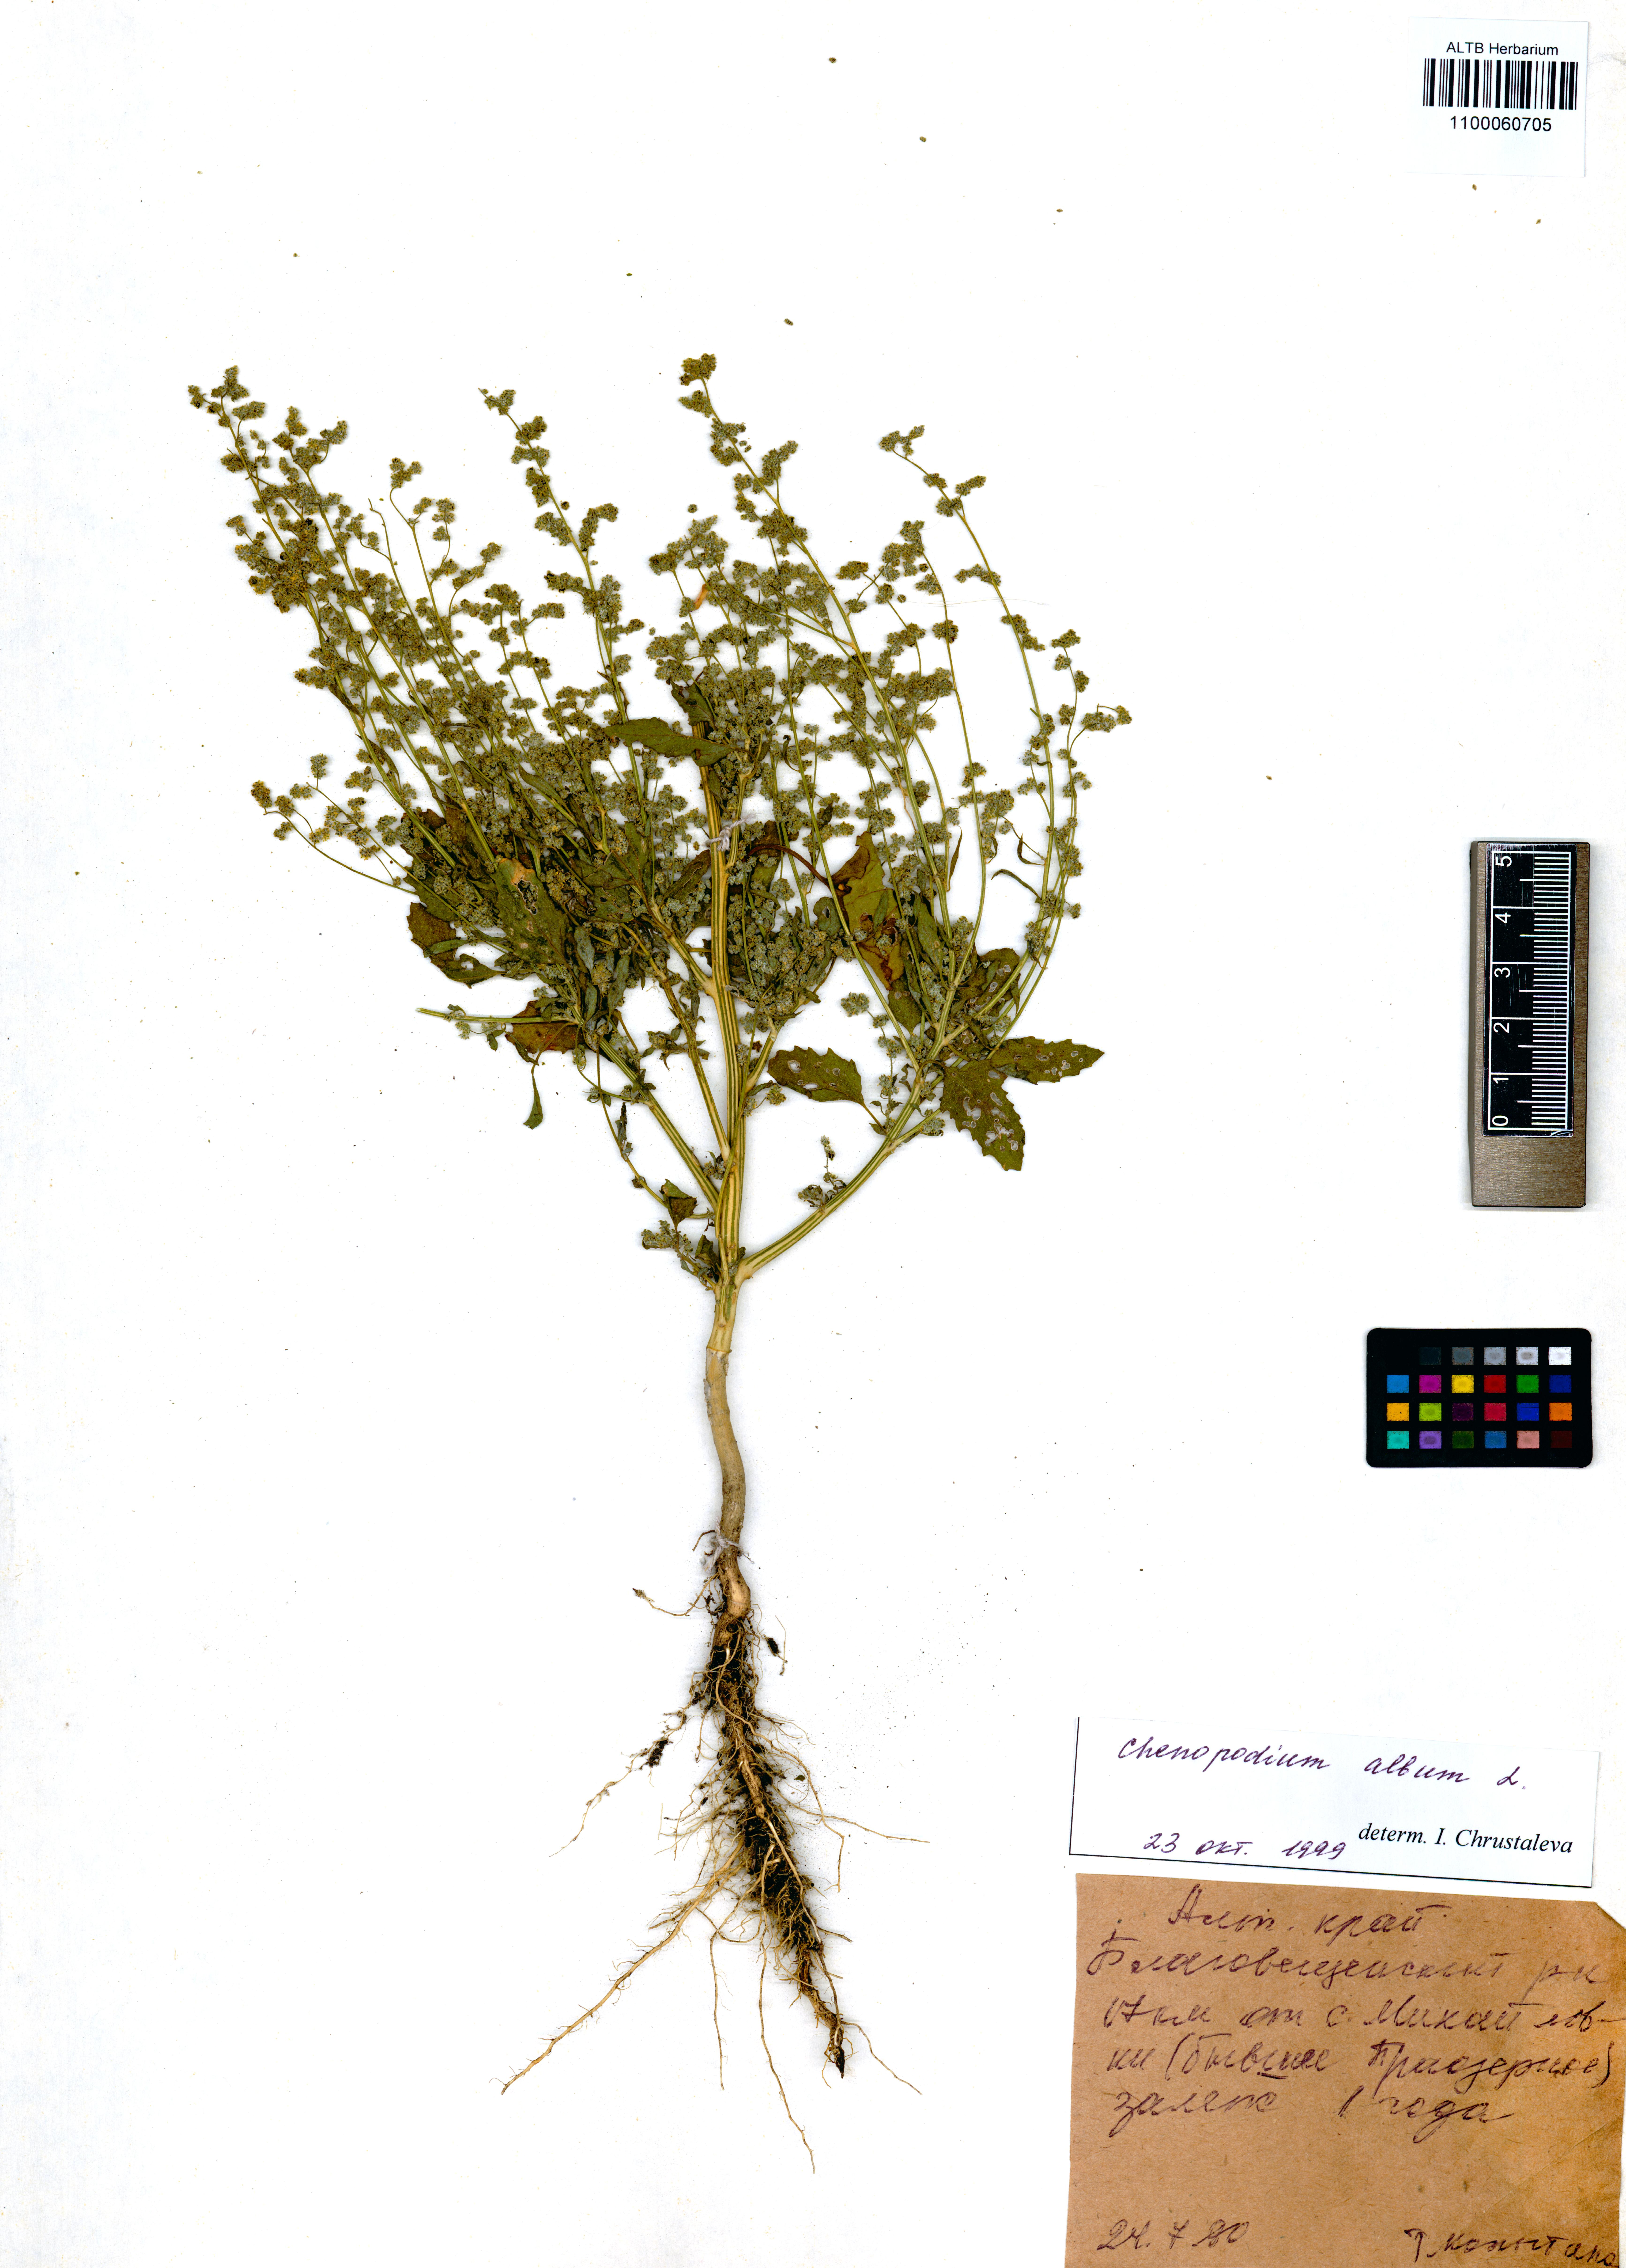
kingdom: Plantae
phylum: Tracheophyta
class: Magnoliopsida
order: Caryophyllales
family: Amaranthaceae
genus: Chenopodium
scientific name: Chenopodium album
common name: Fat-hen
